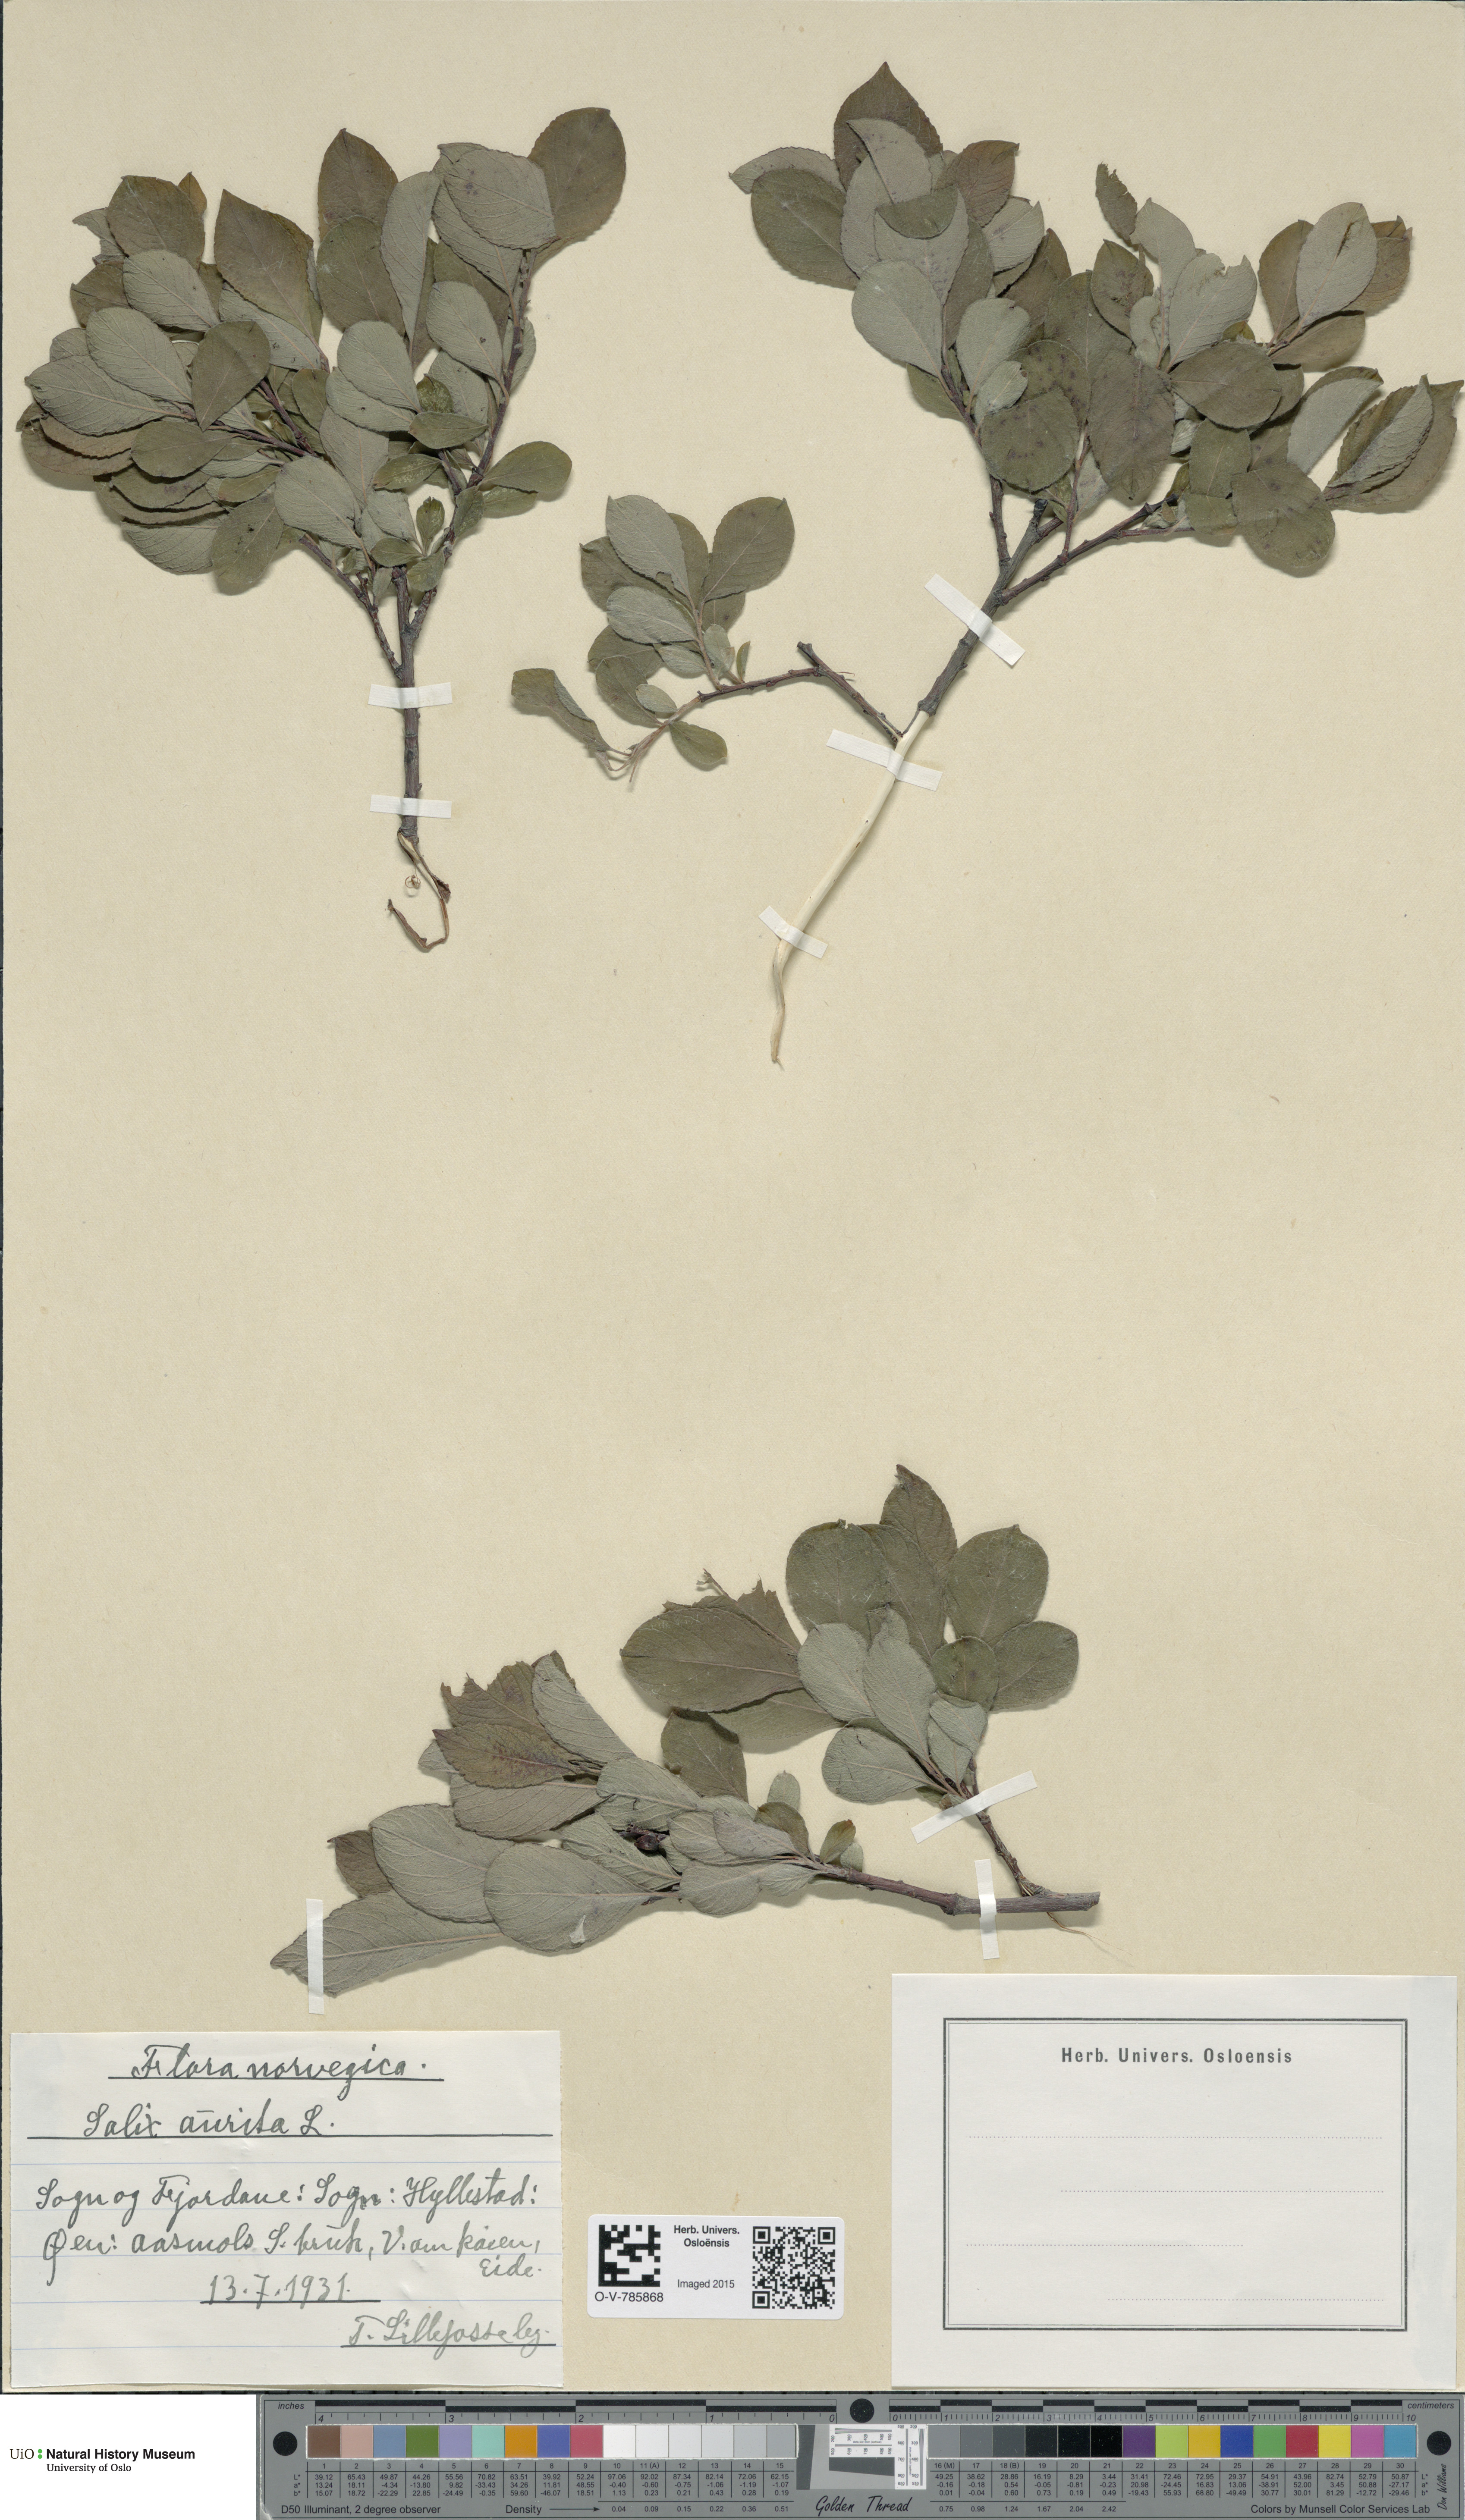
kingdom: Plantae
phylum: Tracheophyta
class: Magnoliopsida
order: Malpighiales
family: Salicaceae
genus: Salix
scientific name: Salix aurita
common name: Eared willow
